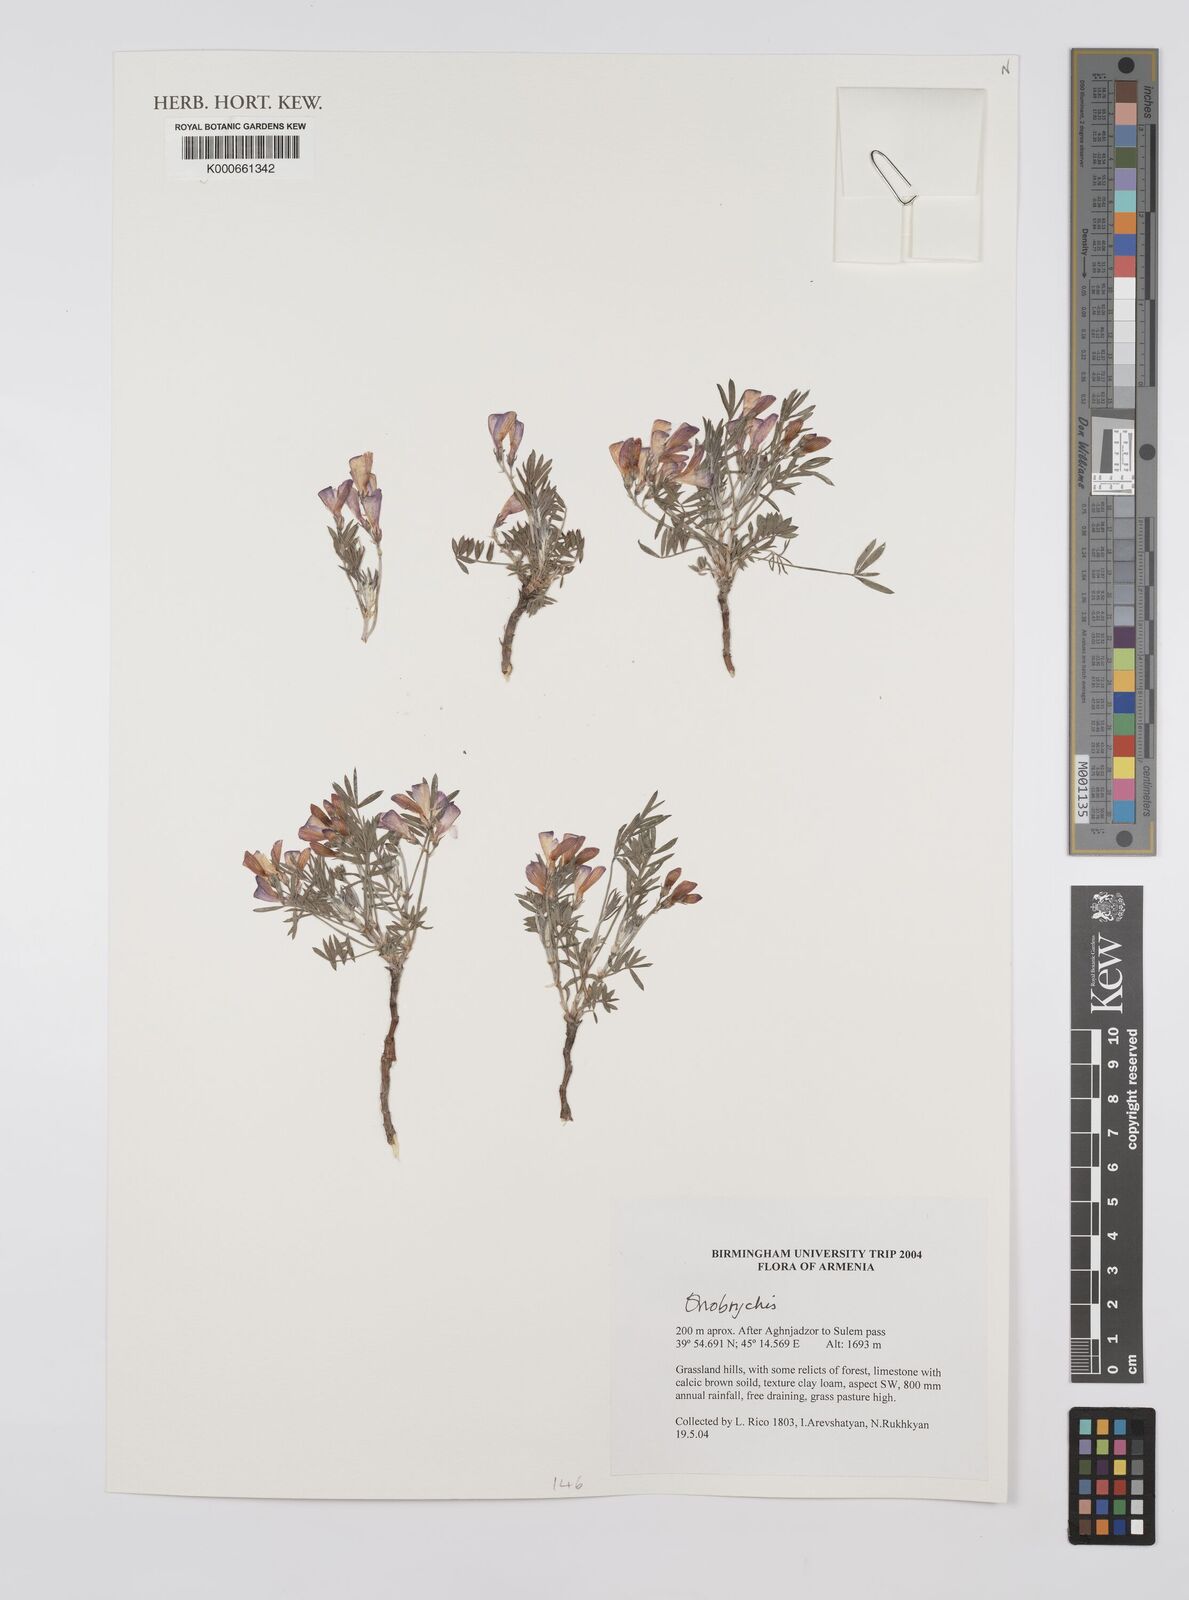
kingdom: Plantae
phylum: Tracheophyta
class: Magnoliopsida
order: Fabales
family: Fabaceae
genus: Onobrychis
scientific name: Onobrychis
